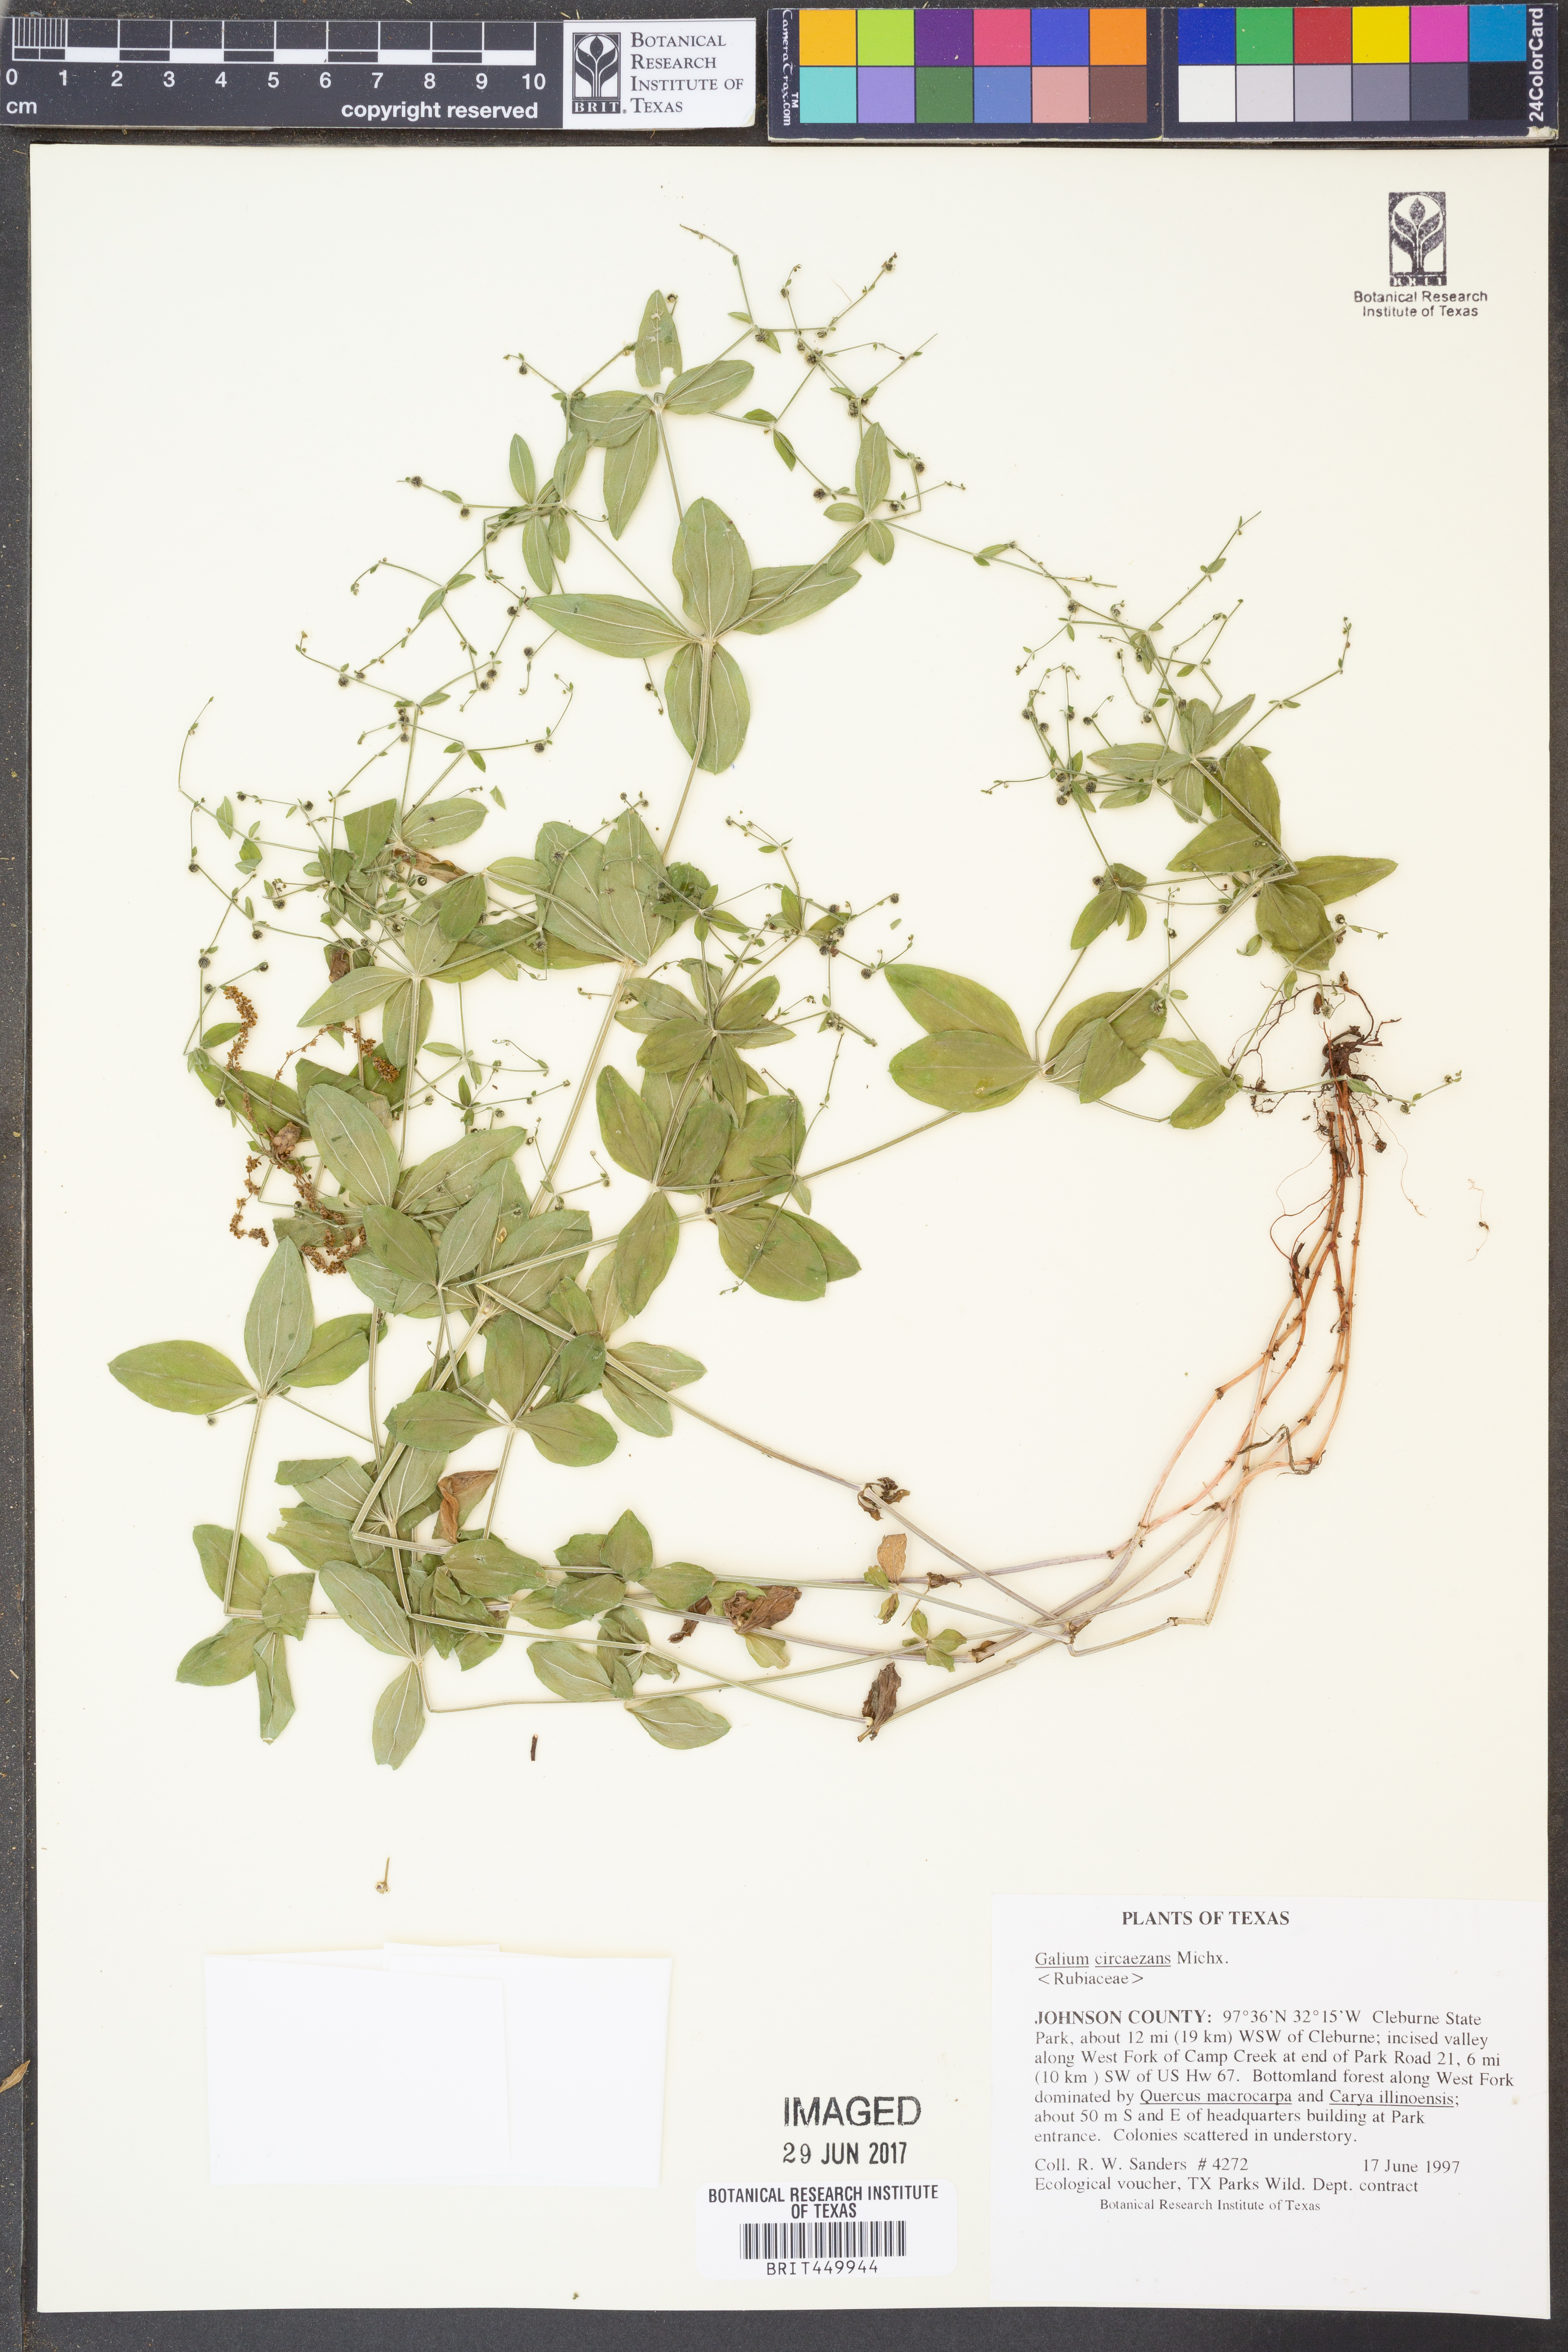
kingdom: Plantae
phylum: Tracheophyta
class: Magnoliopsida
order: Gentianales
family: Rubiaceae
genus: Galium
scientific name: Galium circaezans
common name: Forest bedstraw
